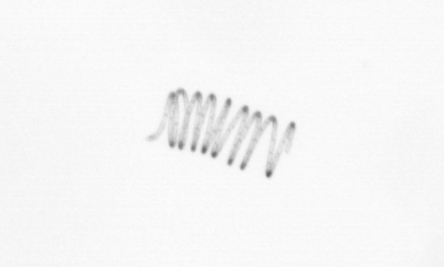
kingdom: Chromista
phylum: Ochrophyta
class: Bacillariophyceae
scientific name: Bacillariophyceae
